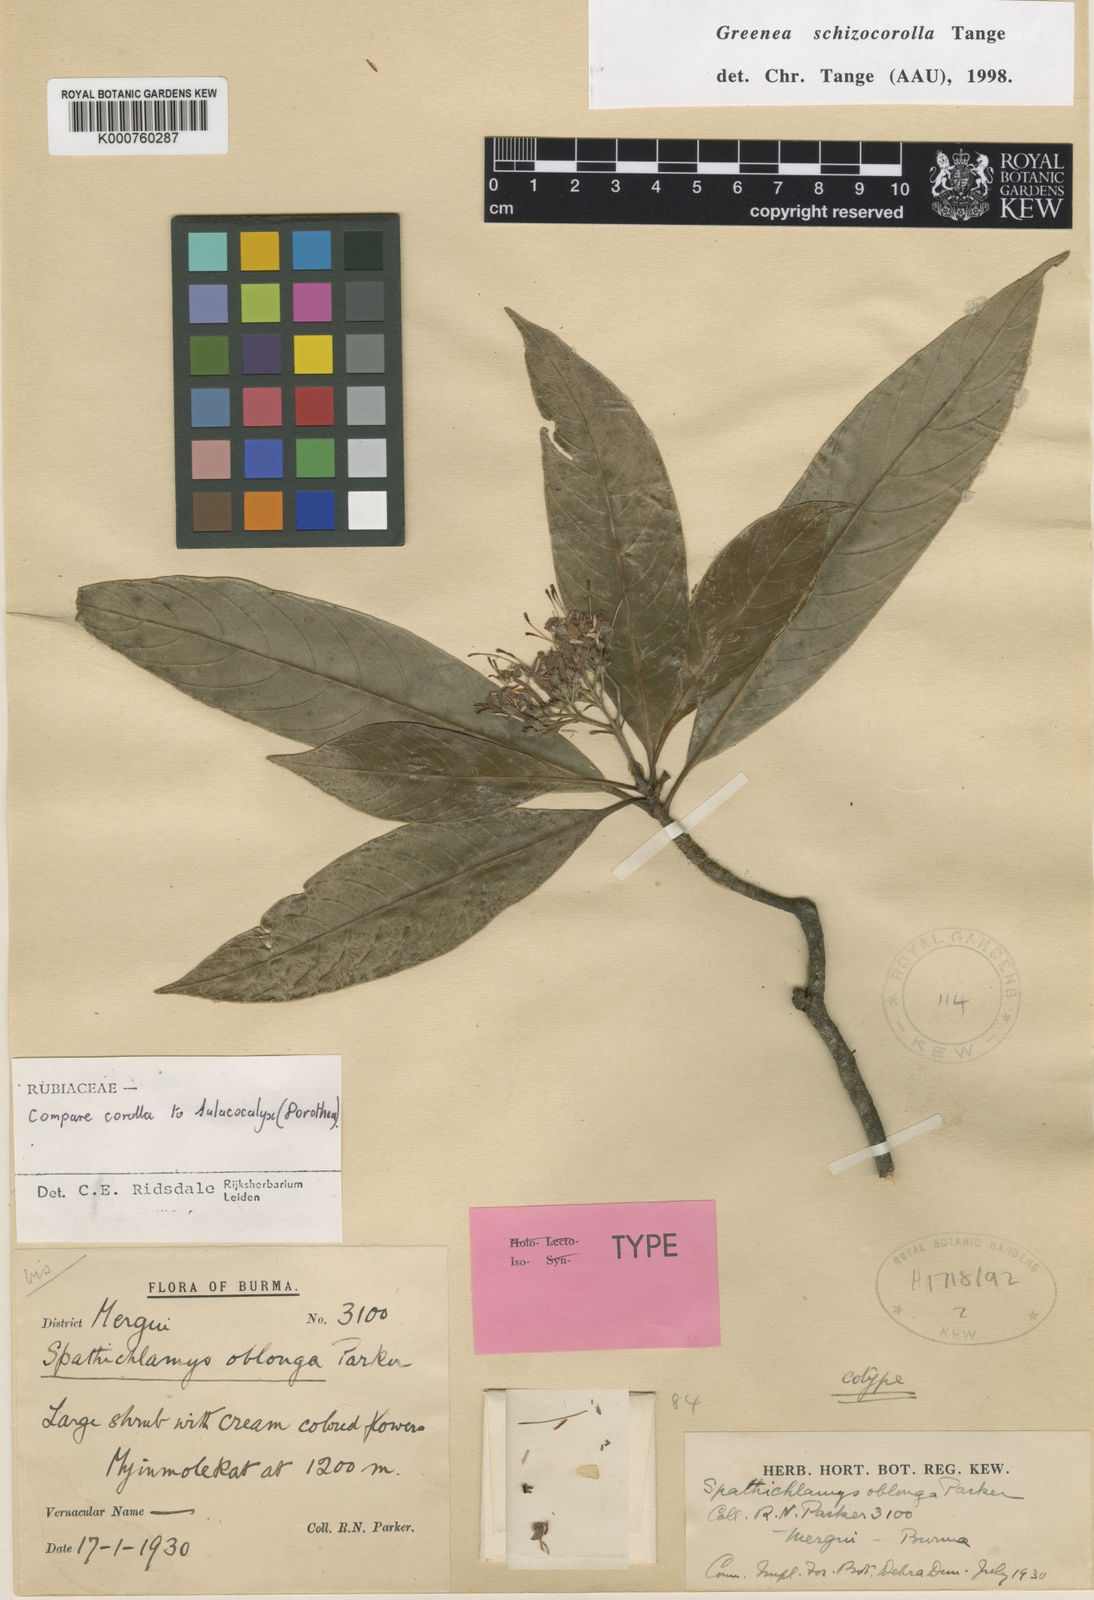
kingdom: Plantae
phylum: Tracheophyta
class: Magnoliopsida
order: Gentianales
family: Rubiaceae
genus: Greenea
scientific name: Greenea schizocorolla
